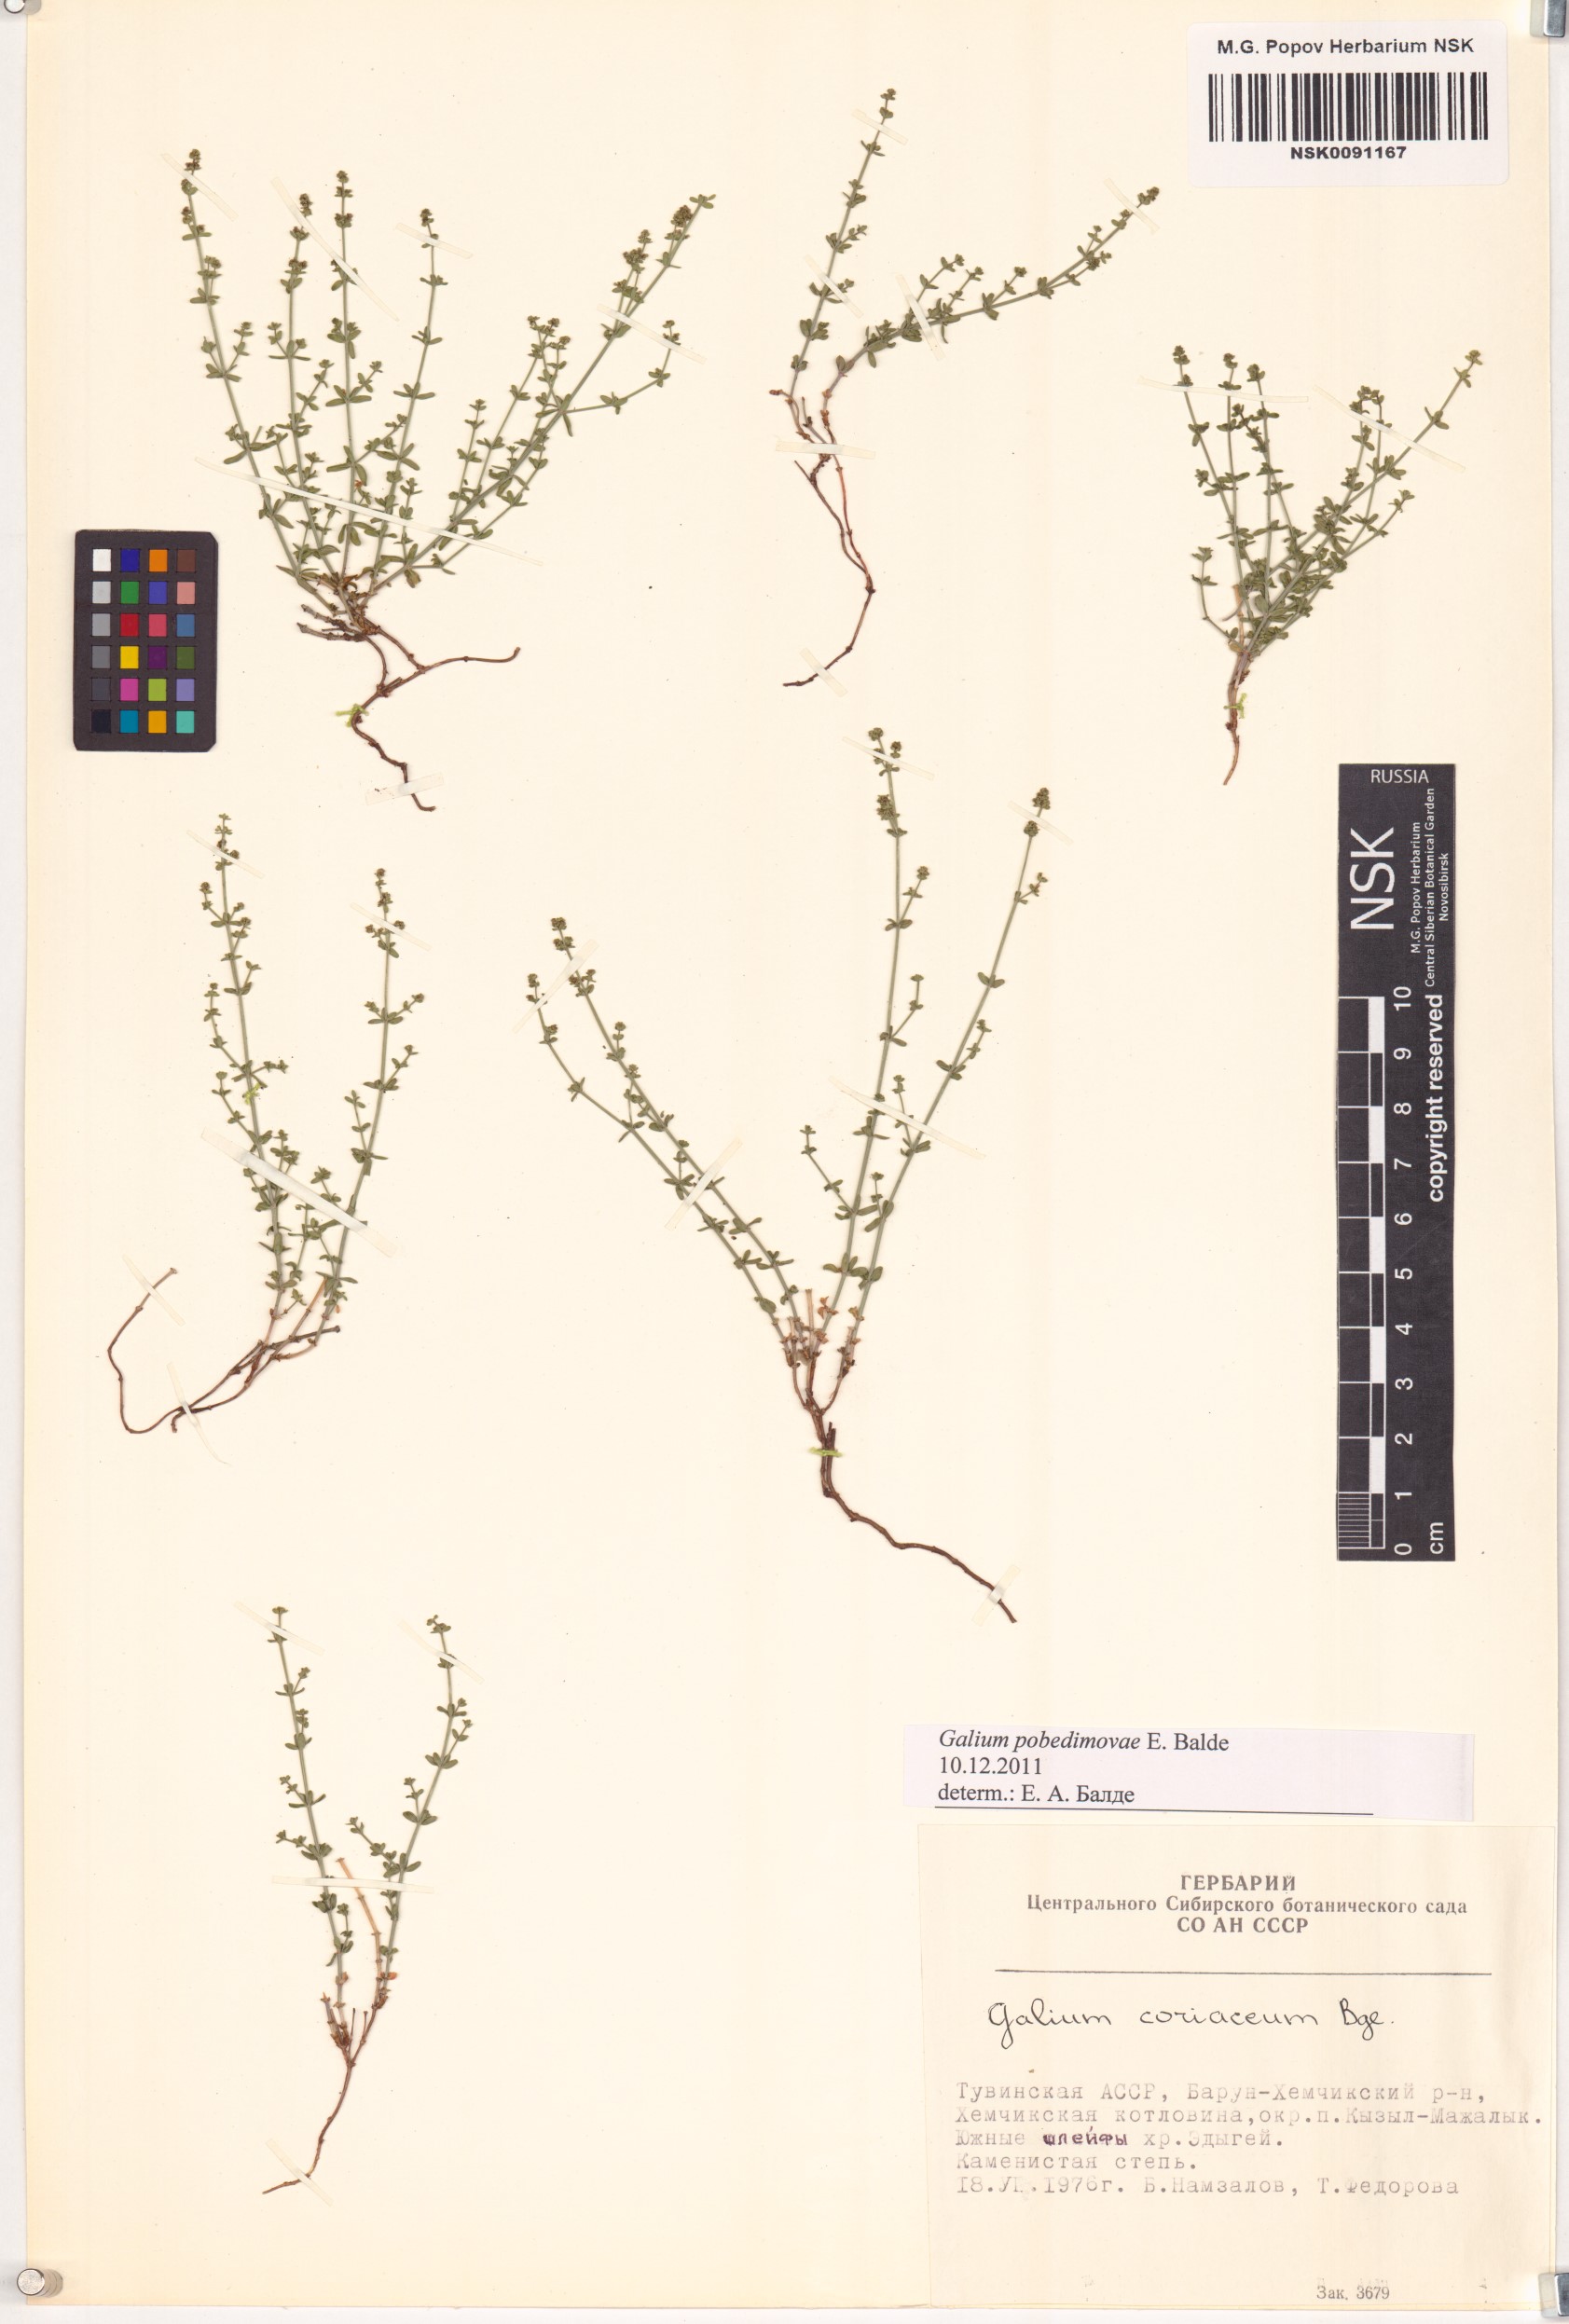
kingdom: Plantae
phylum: Tracheophyta
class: Magnoliopsida
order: Gentianales
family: Rubiaceae
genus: Galium
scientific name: Galium pobedimovae
